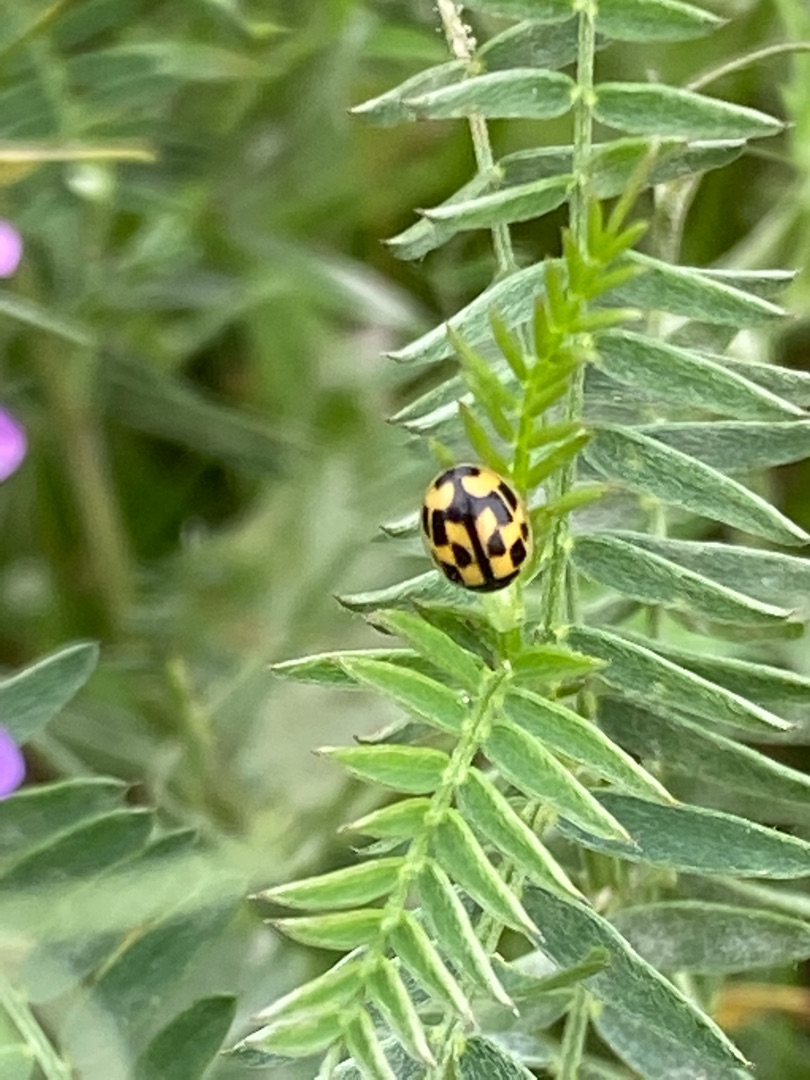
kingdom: Animalia
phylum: Arthropoda
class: Insecta
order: Coleoptera
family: Coccinellidae
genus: Propylaea
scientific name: Propylaea quatuordecimpunctata
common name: Skakbræt
